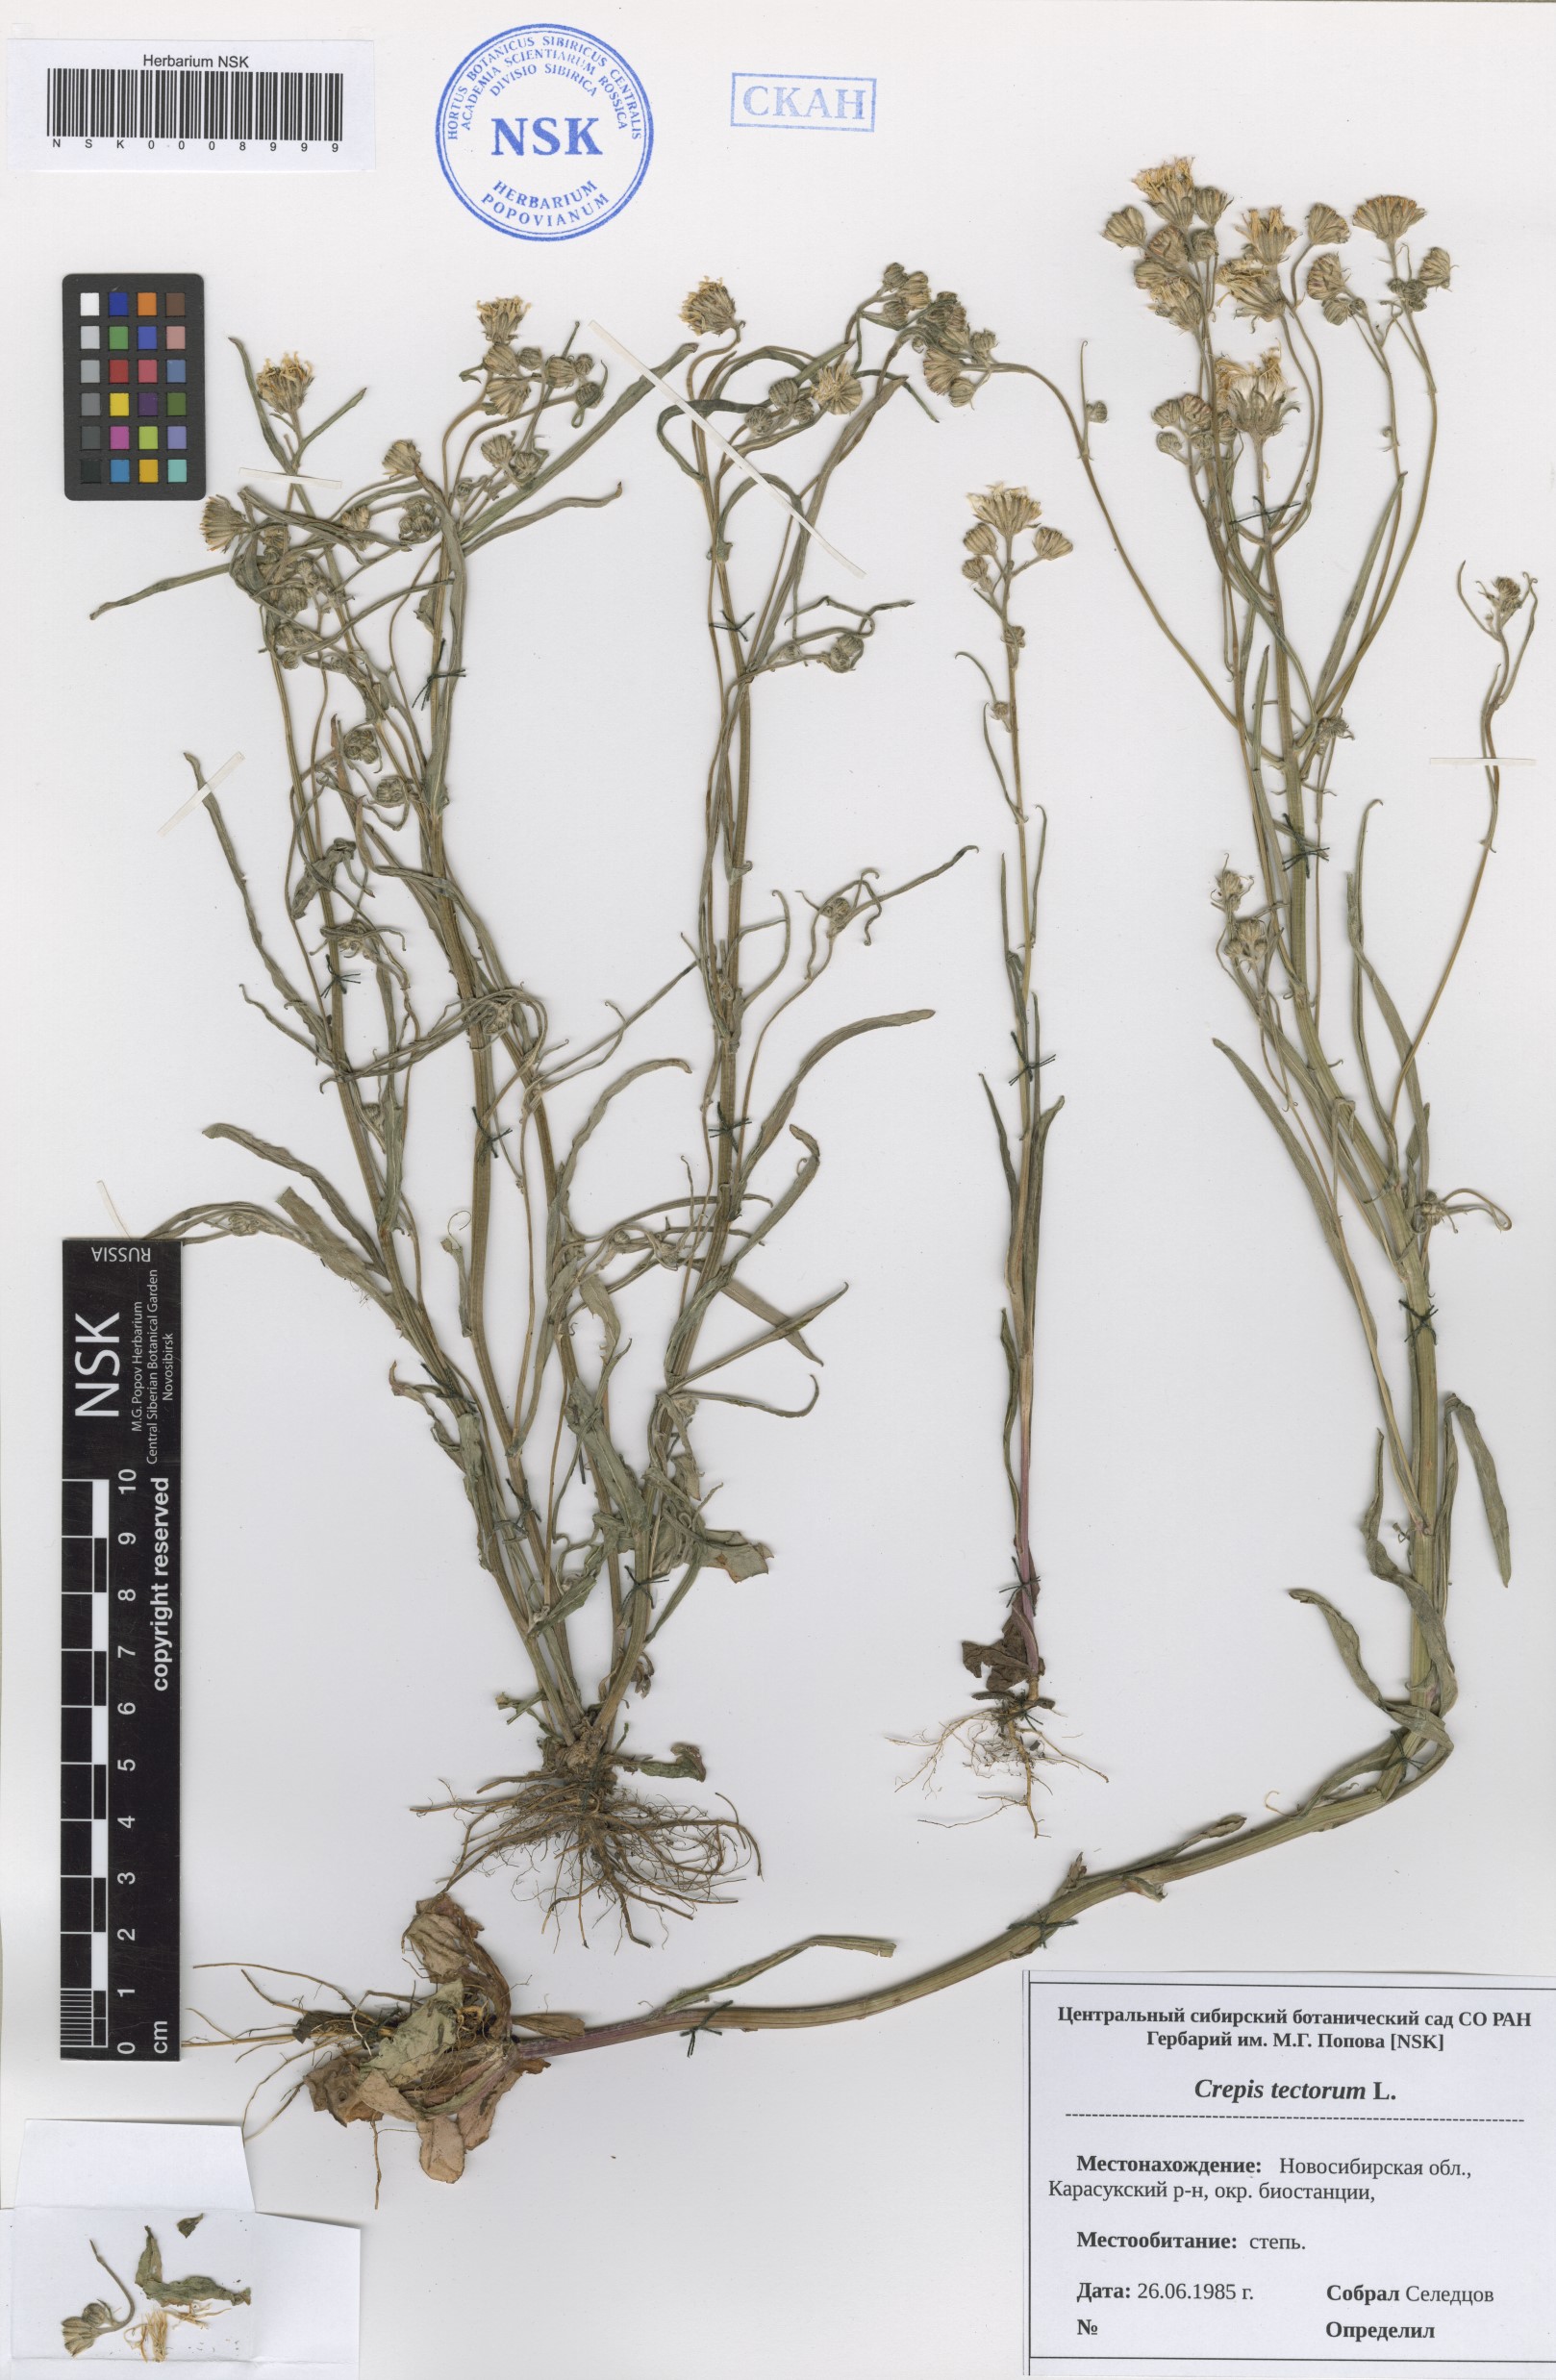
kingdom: Plantae
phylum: Tracheophyta
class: Magnoliopsida
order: Asterales
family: Asteraceae
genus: Crepis
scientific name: Crepis tectorum
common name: Narrow-leaved hawk's-beard
